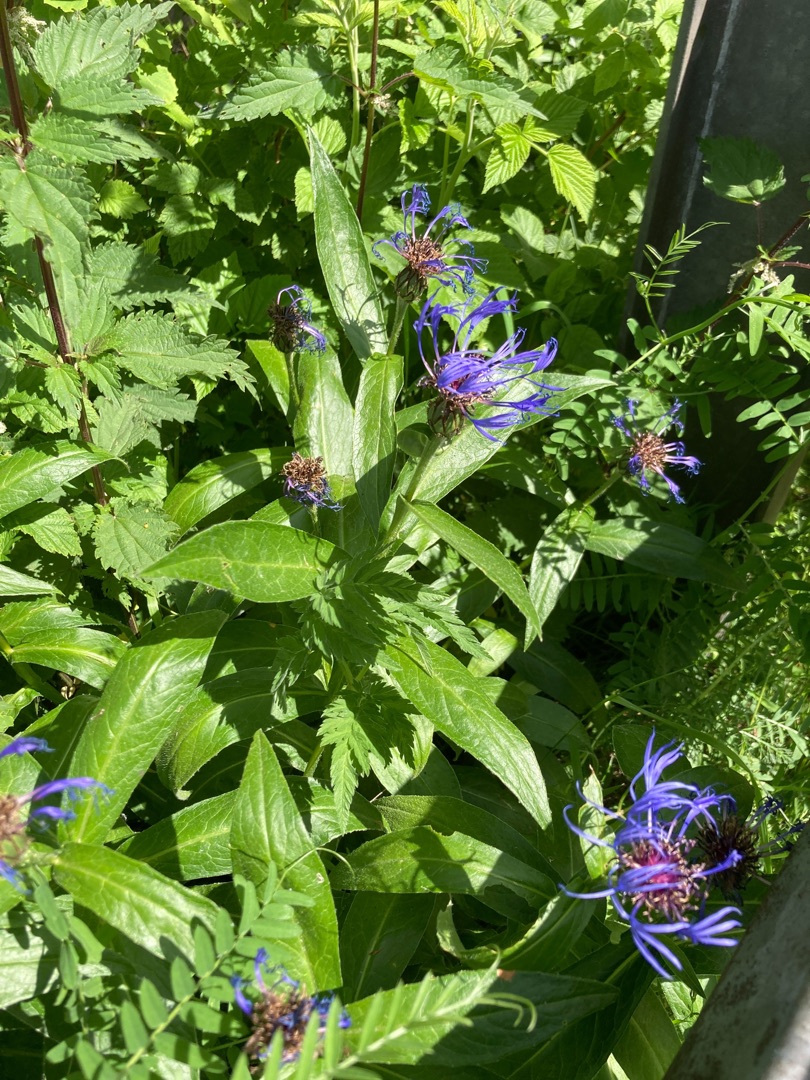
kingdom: Plantae
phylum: Tracheophyta
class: Magnoliopsida
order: Asterales
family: Asteraceae
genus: Centaurea
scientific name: Centaurea montana
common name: Bjerg-knopurt
